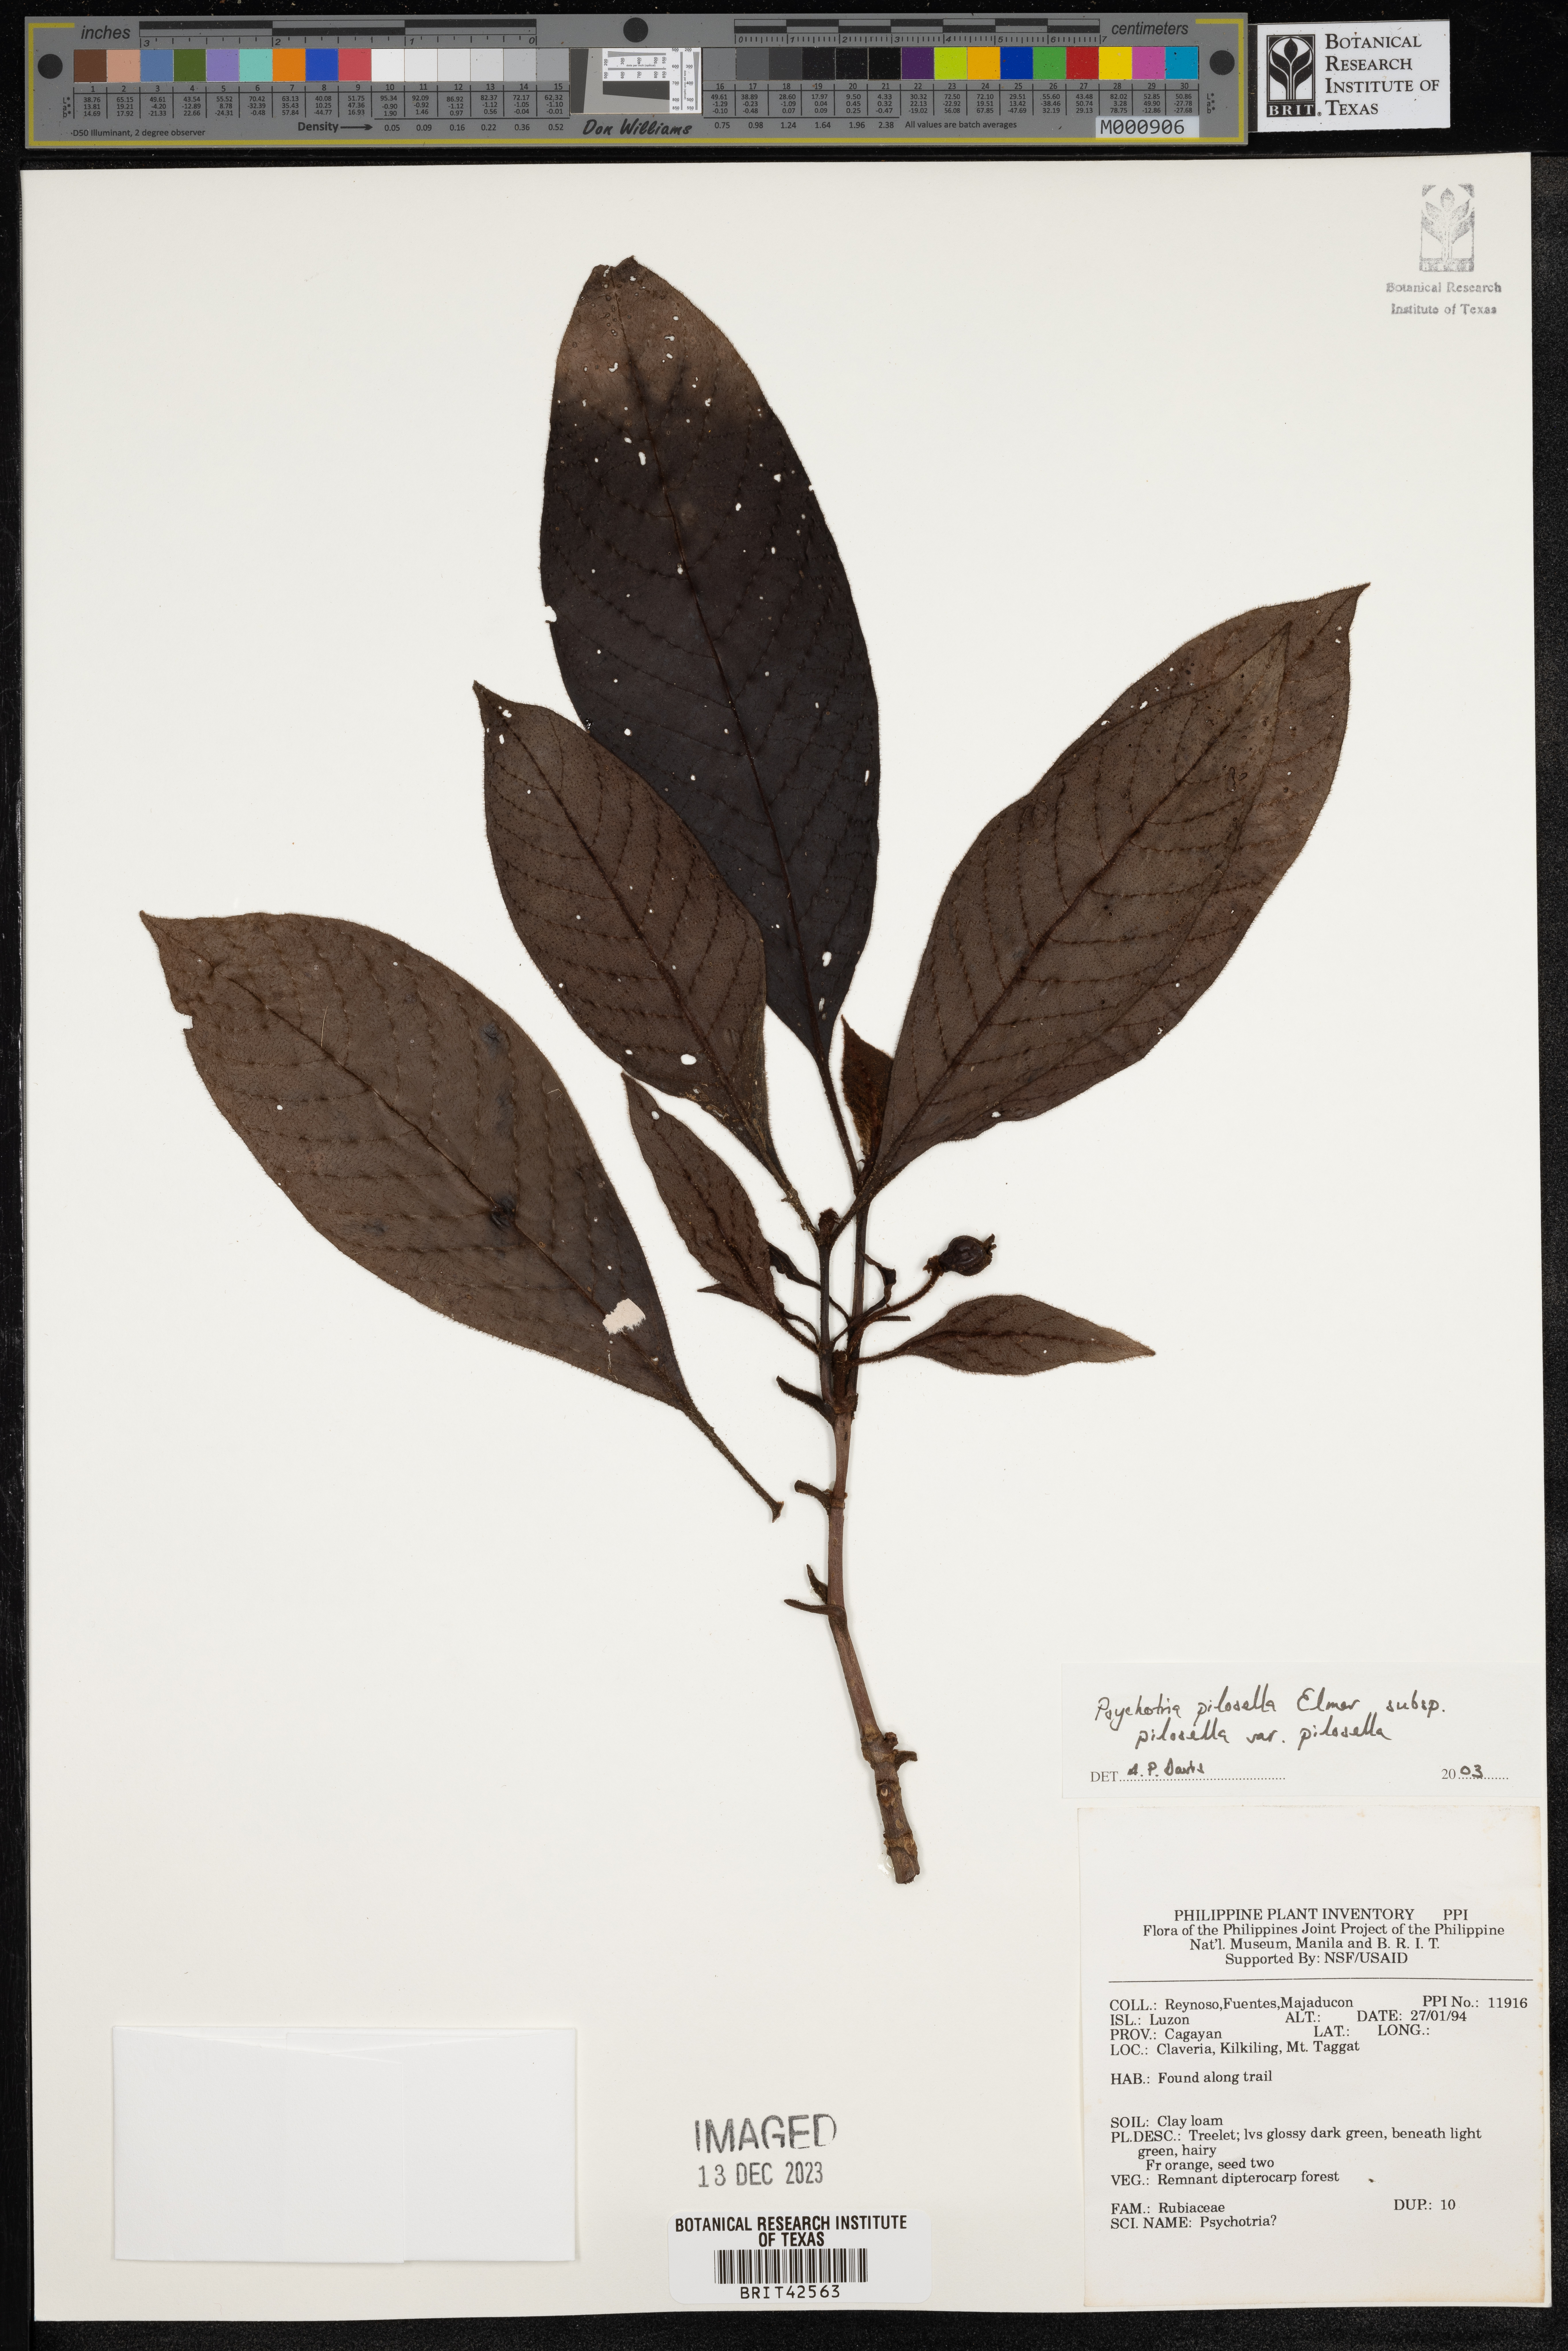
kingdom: Plantae
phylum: Tracheophyta
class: Magnoliopsida
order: Gentianales
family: Rubiaceae
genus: Psychotria
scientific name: Psychotria pilosella
